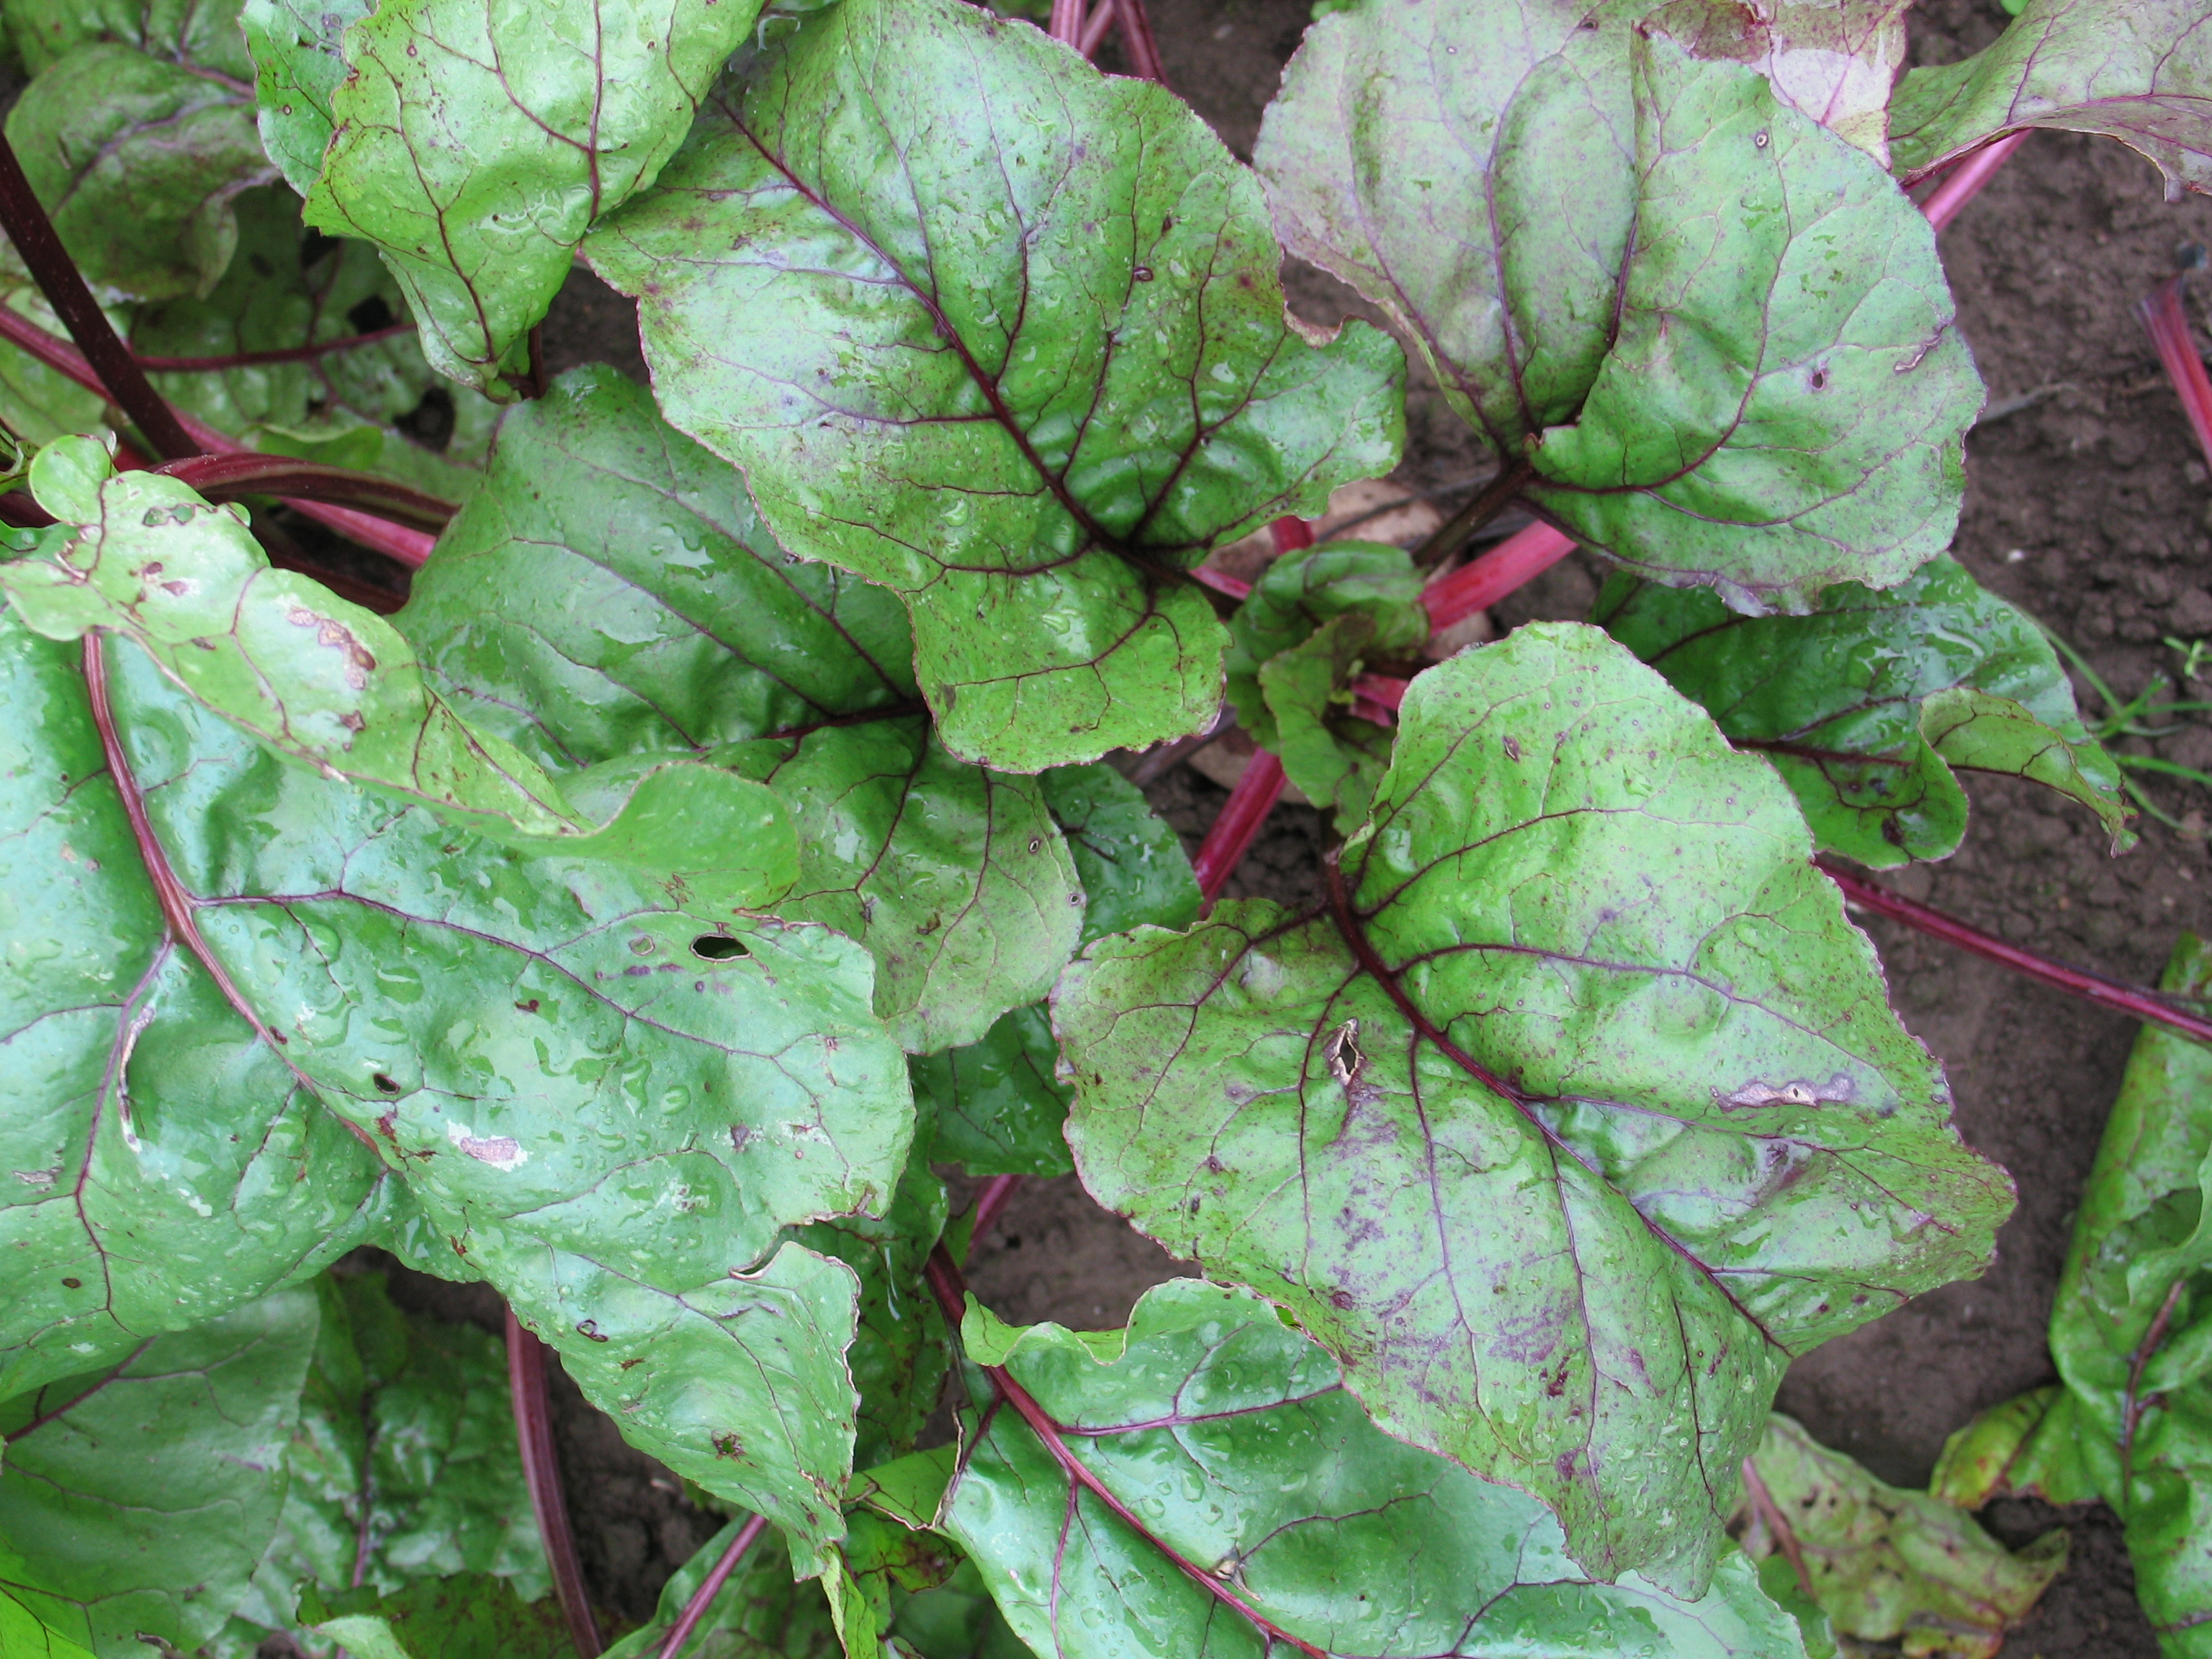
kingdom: Plantae
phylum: Tracheophyta
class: Magnoliopsida
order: Caryophyllales
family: Amaranthaceae
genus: Beta
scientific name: Beta vulgaris
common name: Beet
